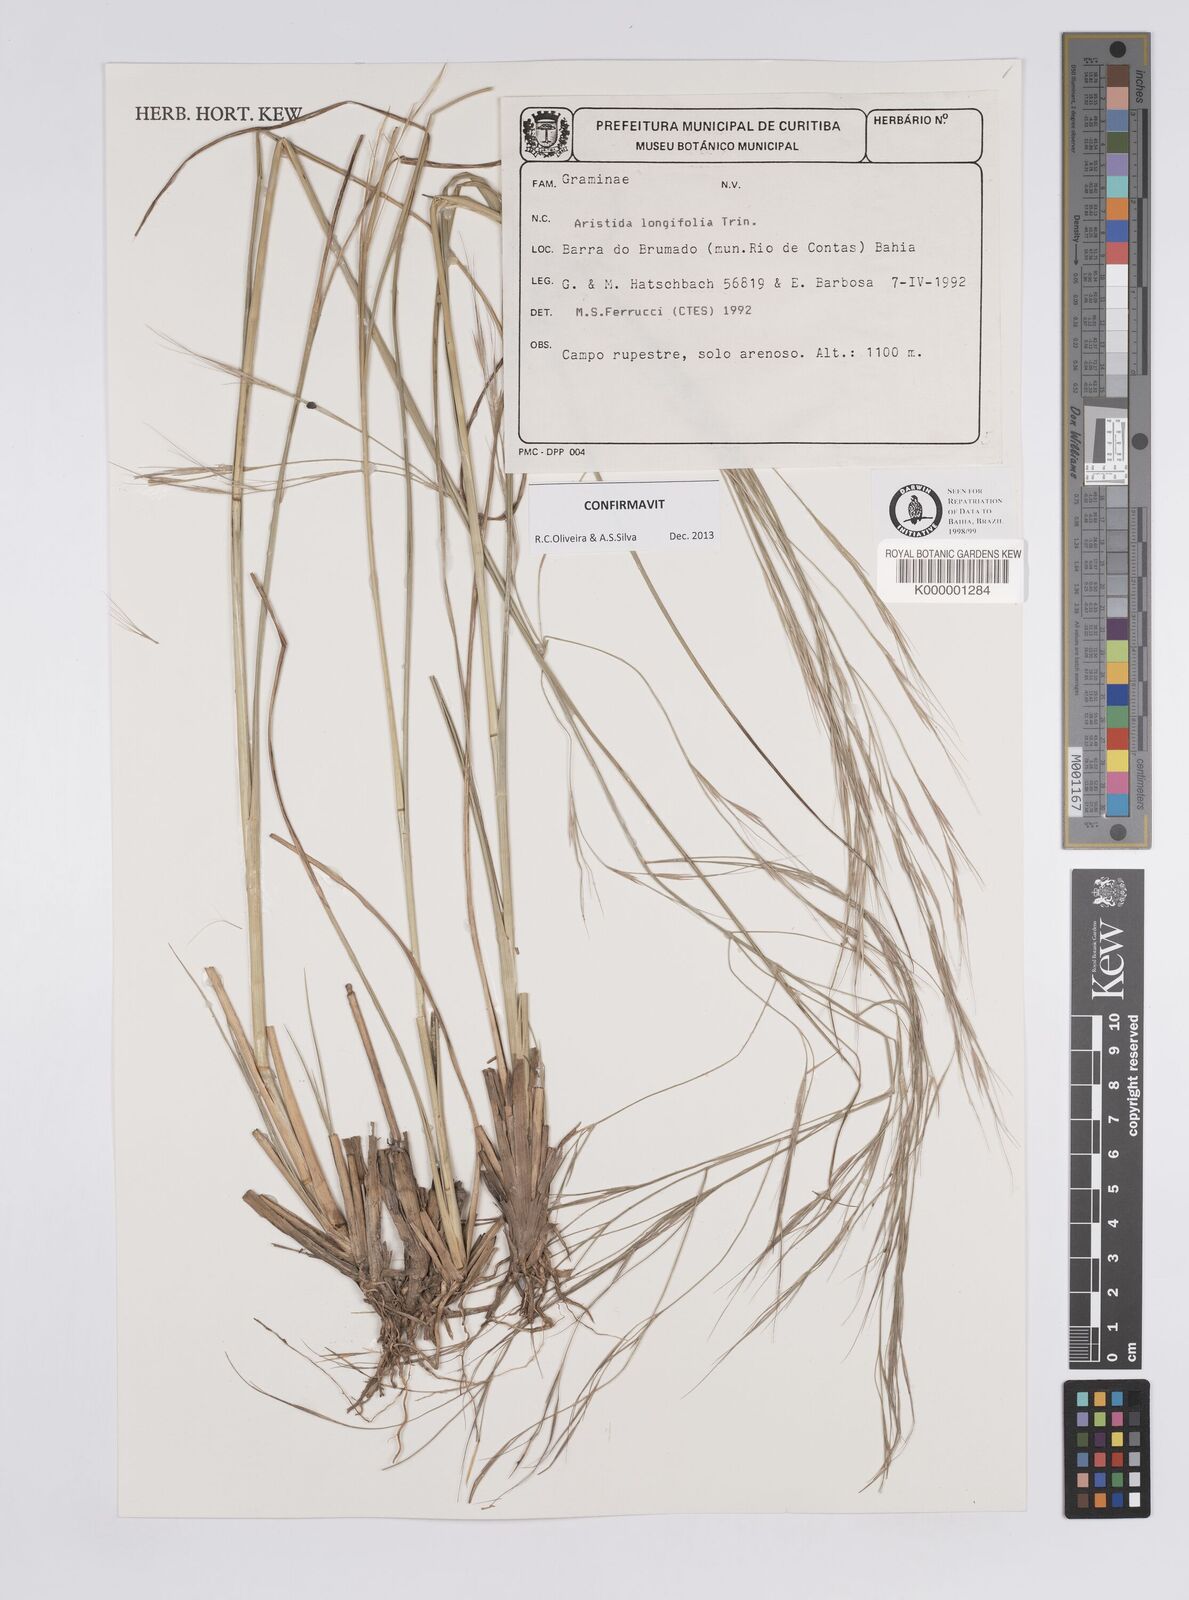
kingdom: Plantae
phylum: Tracheophyta
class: Liliopsida
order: Poales
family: Poaceae
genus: Aristida
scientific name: Aristida longifolia
